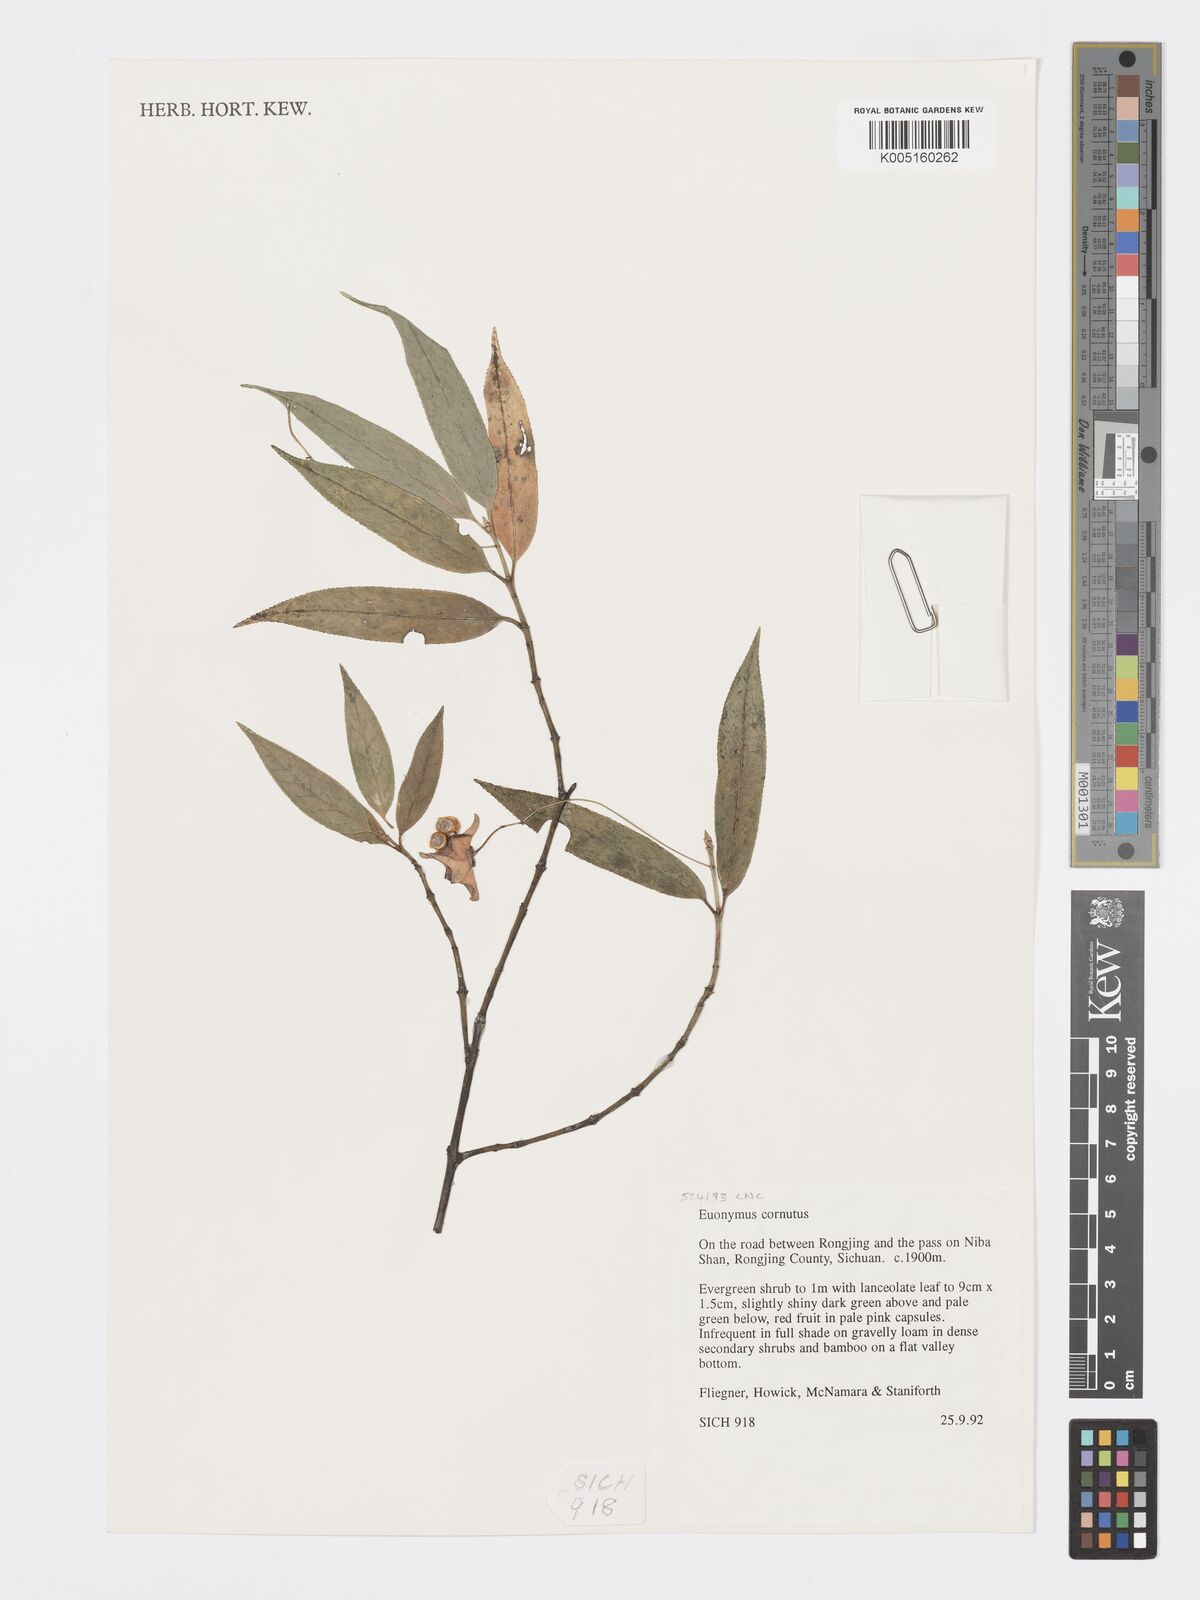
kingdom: Plantae
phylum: Tracheophyta
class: Magnoliopsida
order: Celastrales
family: Celastraceae
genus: Euonymus
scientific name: Euonymus cornutus
